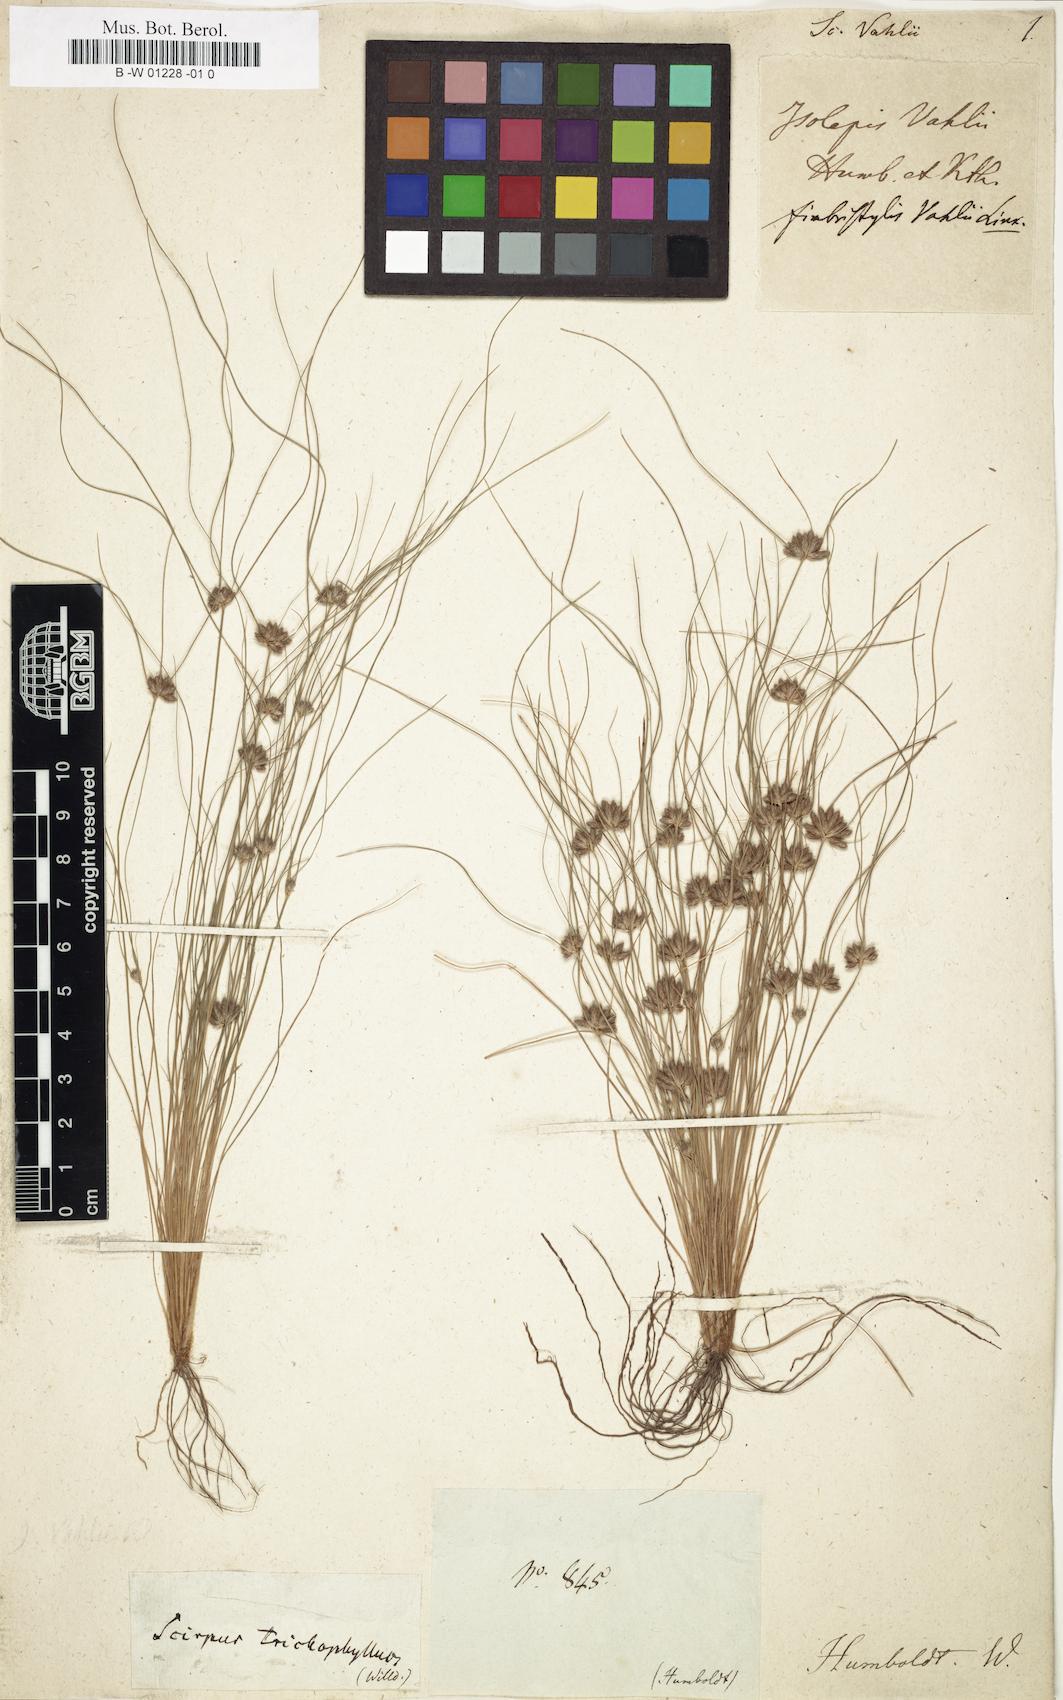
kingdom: Plantae
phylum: Tracheophyta
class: Liliopsida
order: Poales
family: Cyperaceae
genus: Fimbristylis
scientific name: Fimbristylis vahlii
